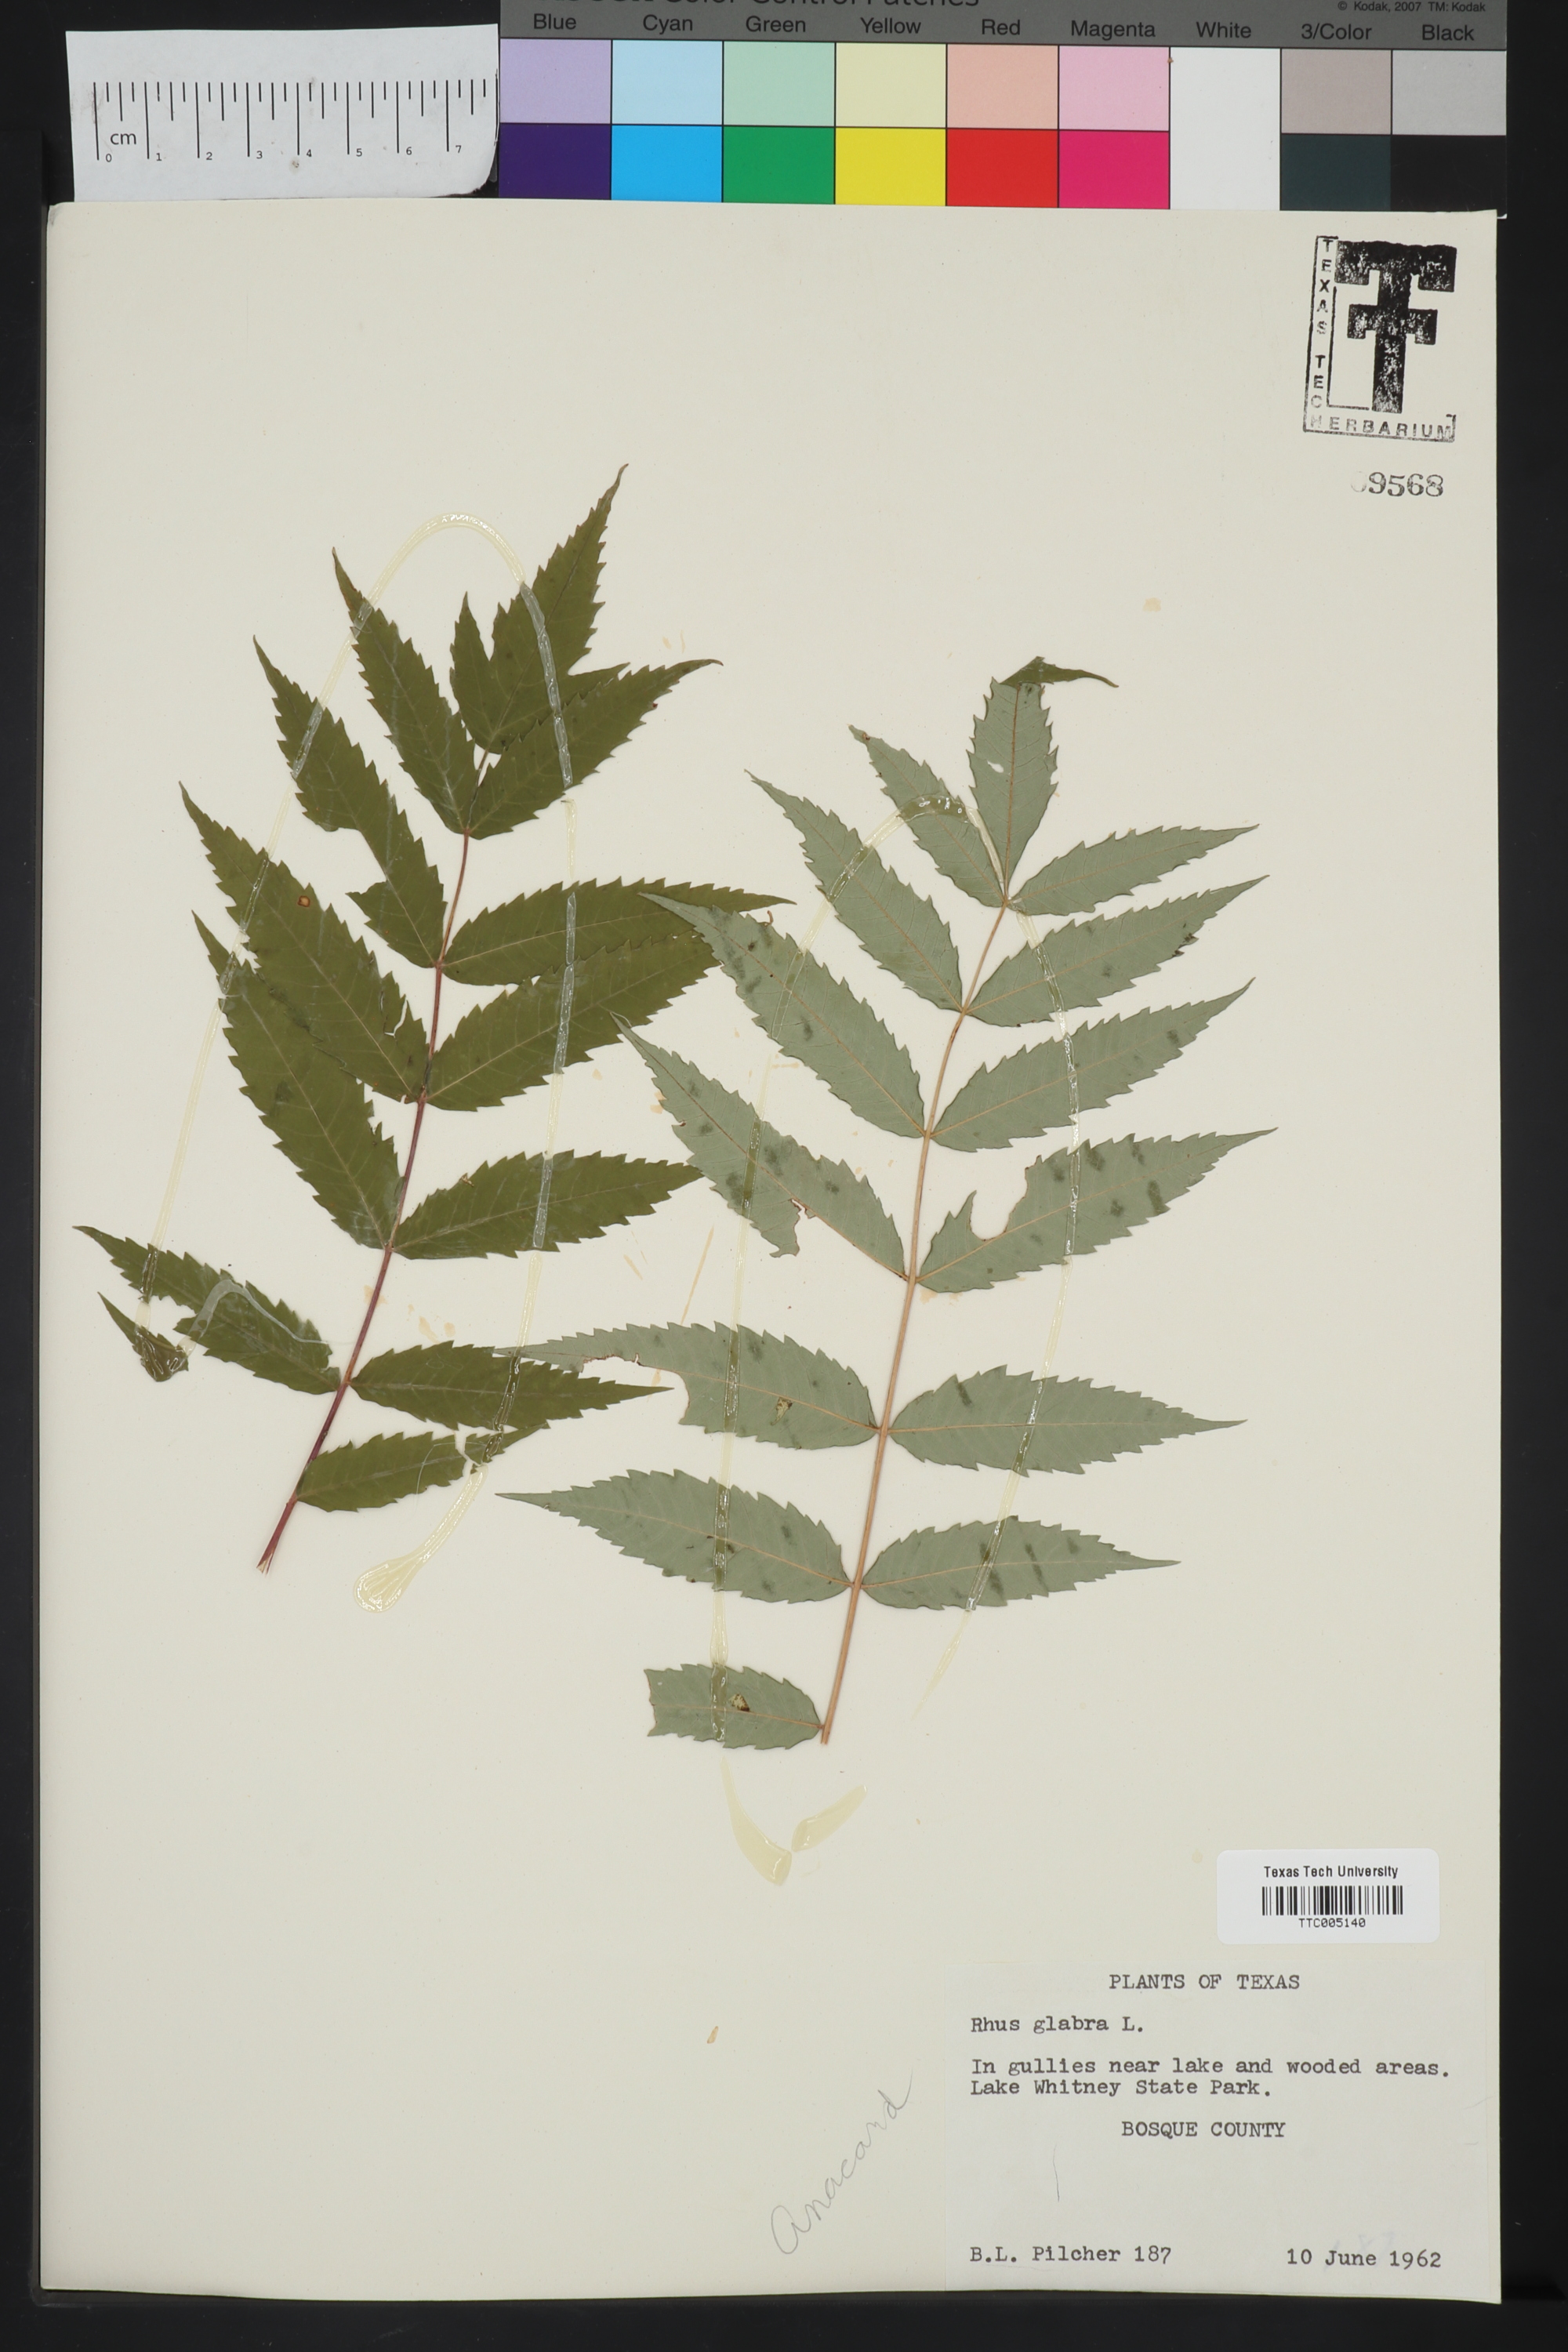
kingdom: Plantae
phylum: Tracheophyta
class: Magnoliopsida
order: Sapindales
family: Anacardiaceae
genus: Rhus
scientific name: Rhus glabra
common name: Scarlet sumac
